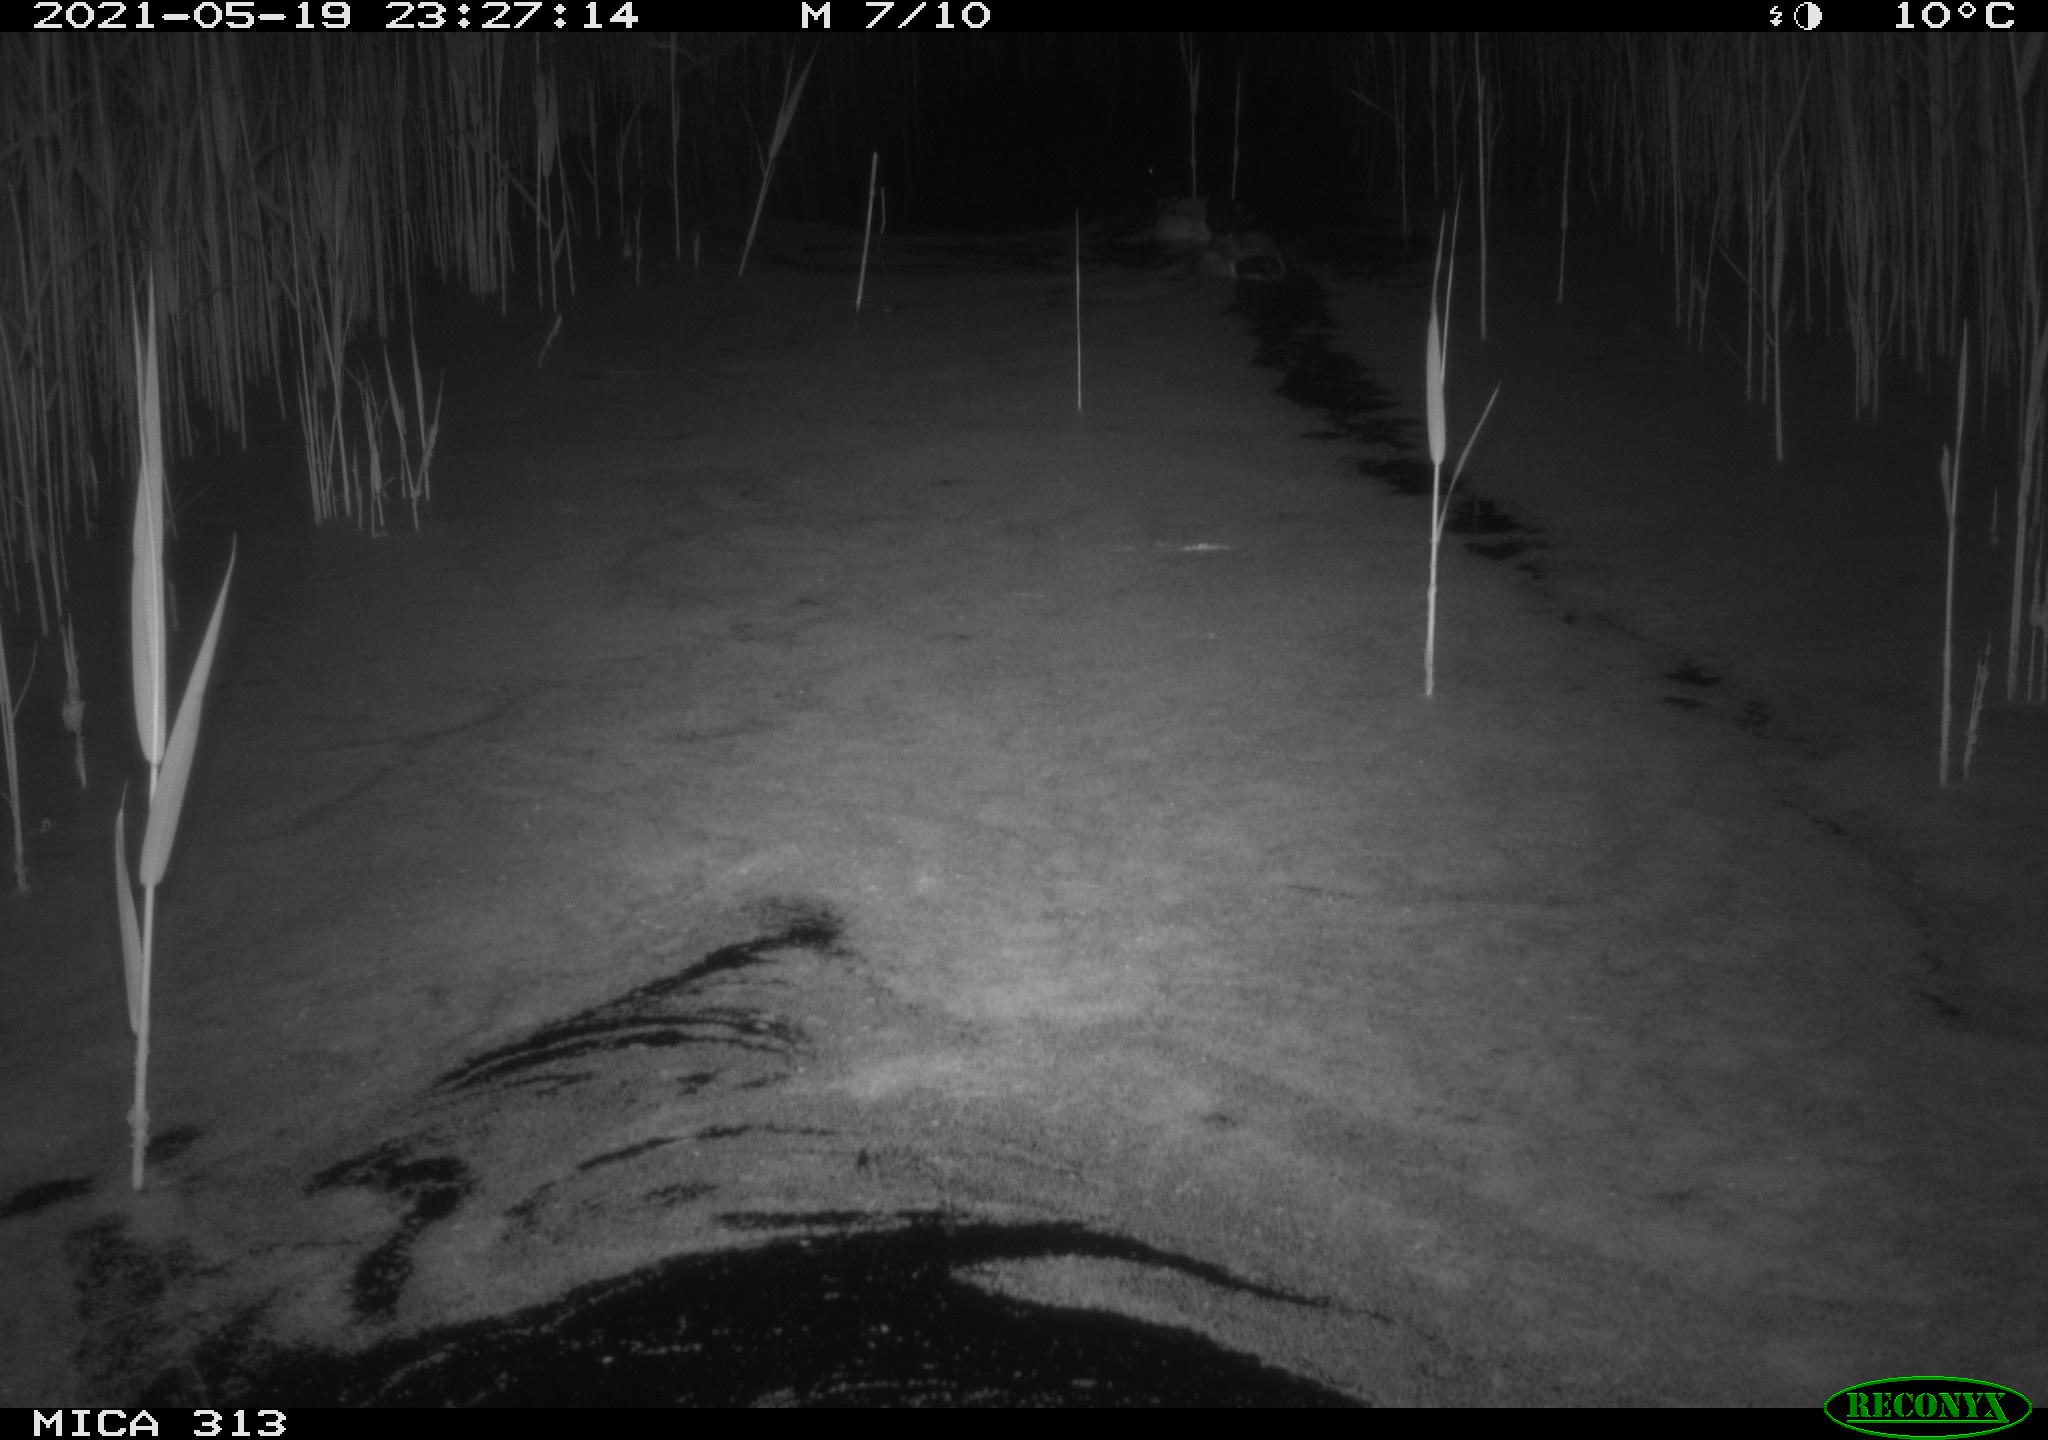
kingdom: Animalia
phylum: Chordata
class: Aves
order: Anseriformes
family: Anatidae
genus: Anas
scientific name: Anas platyrhynchos
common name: Mallard
